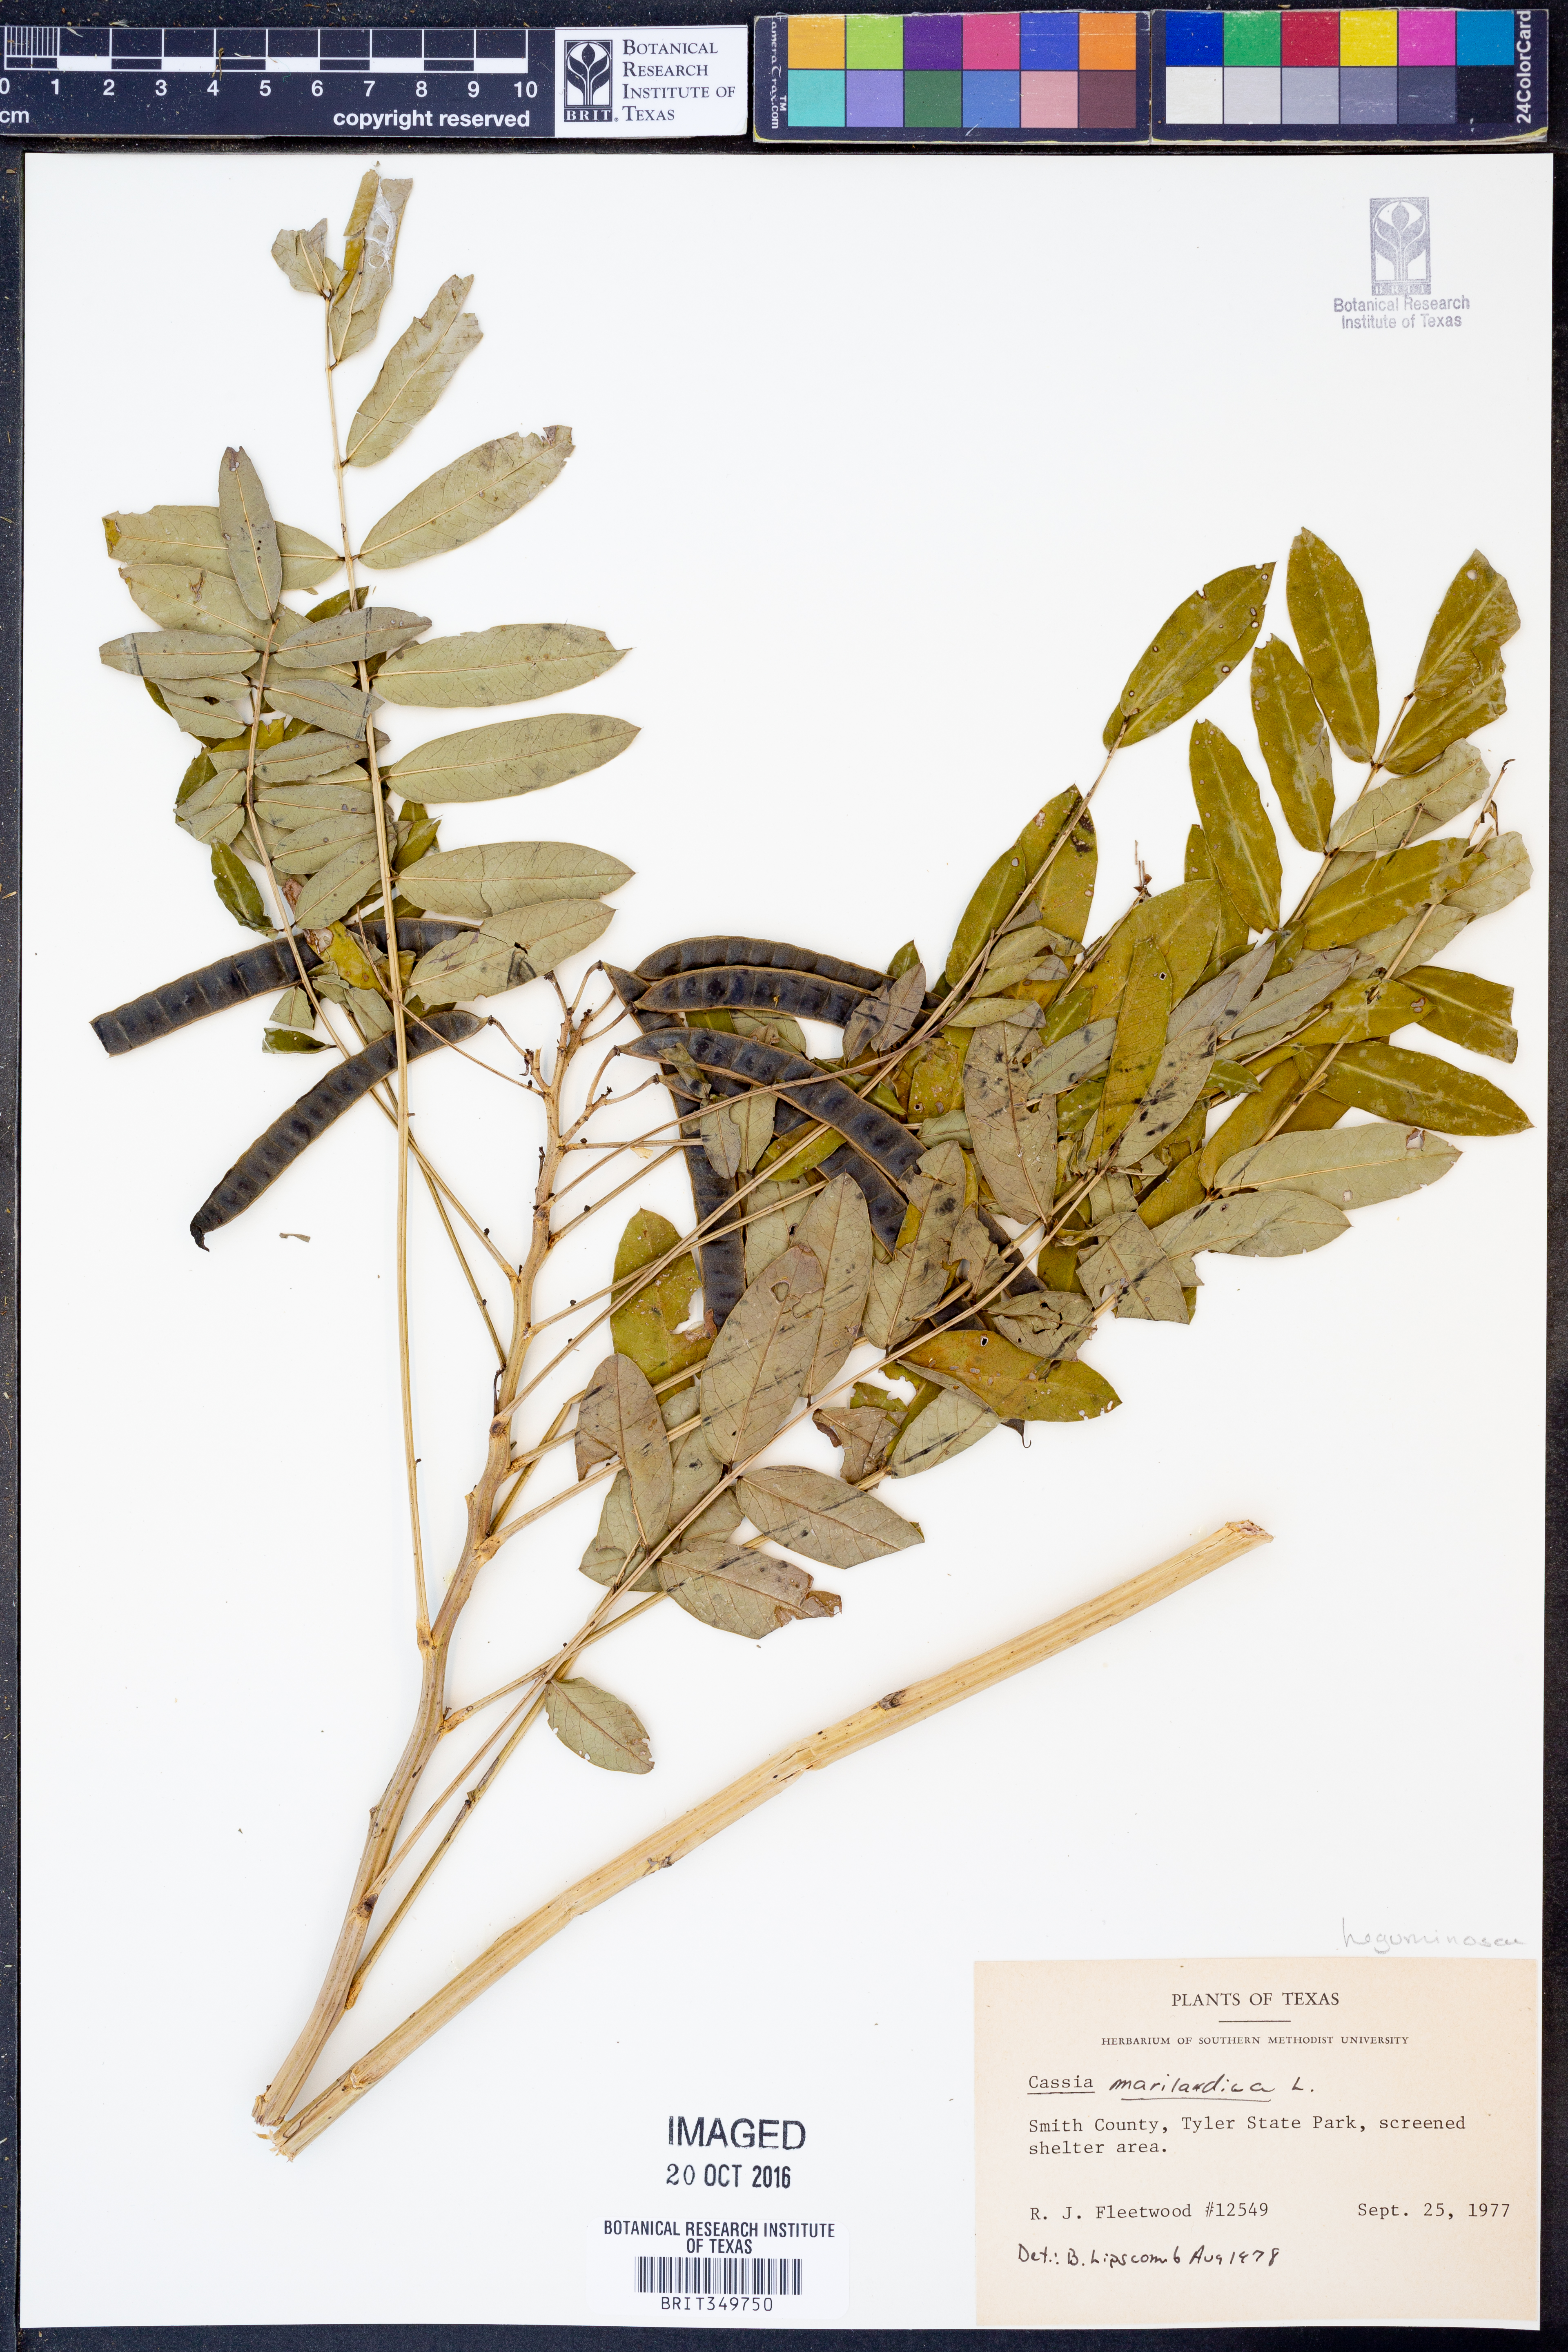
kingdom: Plantae
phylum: Tracheophyta
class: Magnoliopsida
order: Fabales
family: Fabaceae
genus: Senna
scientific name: Senna marilandica
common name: American senna
